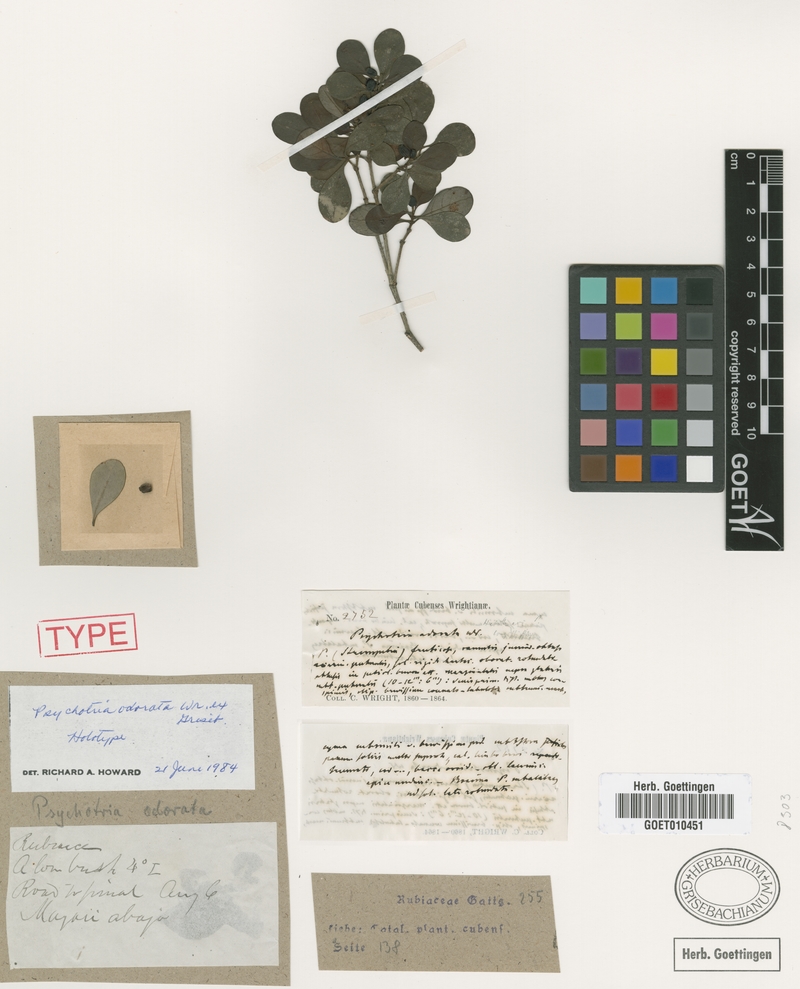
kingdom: Plantae
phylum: Tracheophyta
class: Magnoliopsida
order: Gentianales
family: Rubiaceae
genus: Palicourea
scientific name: Palicourea odorata
